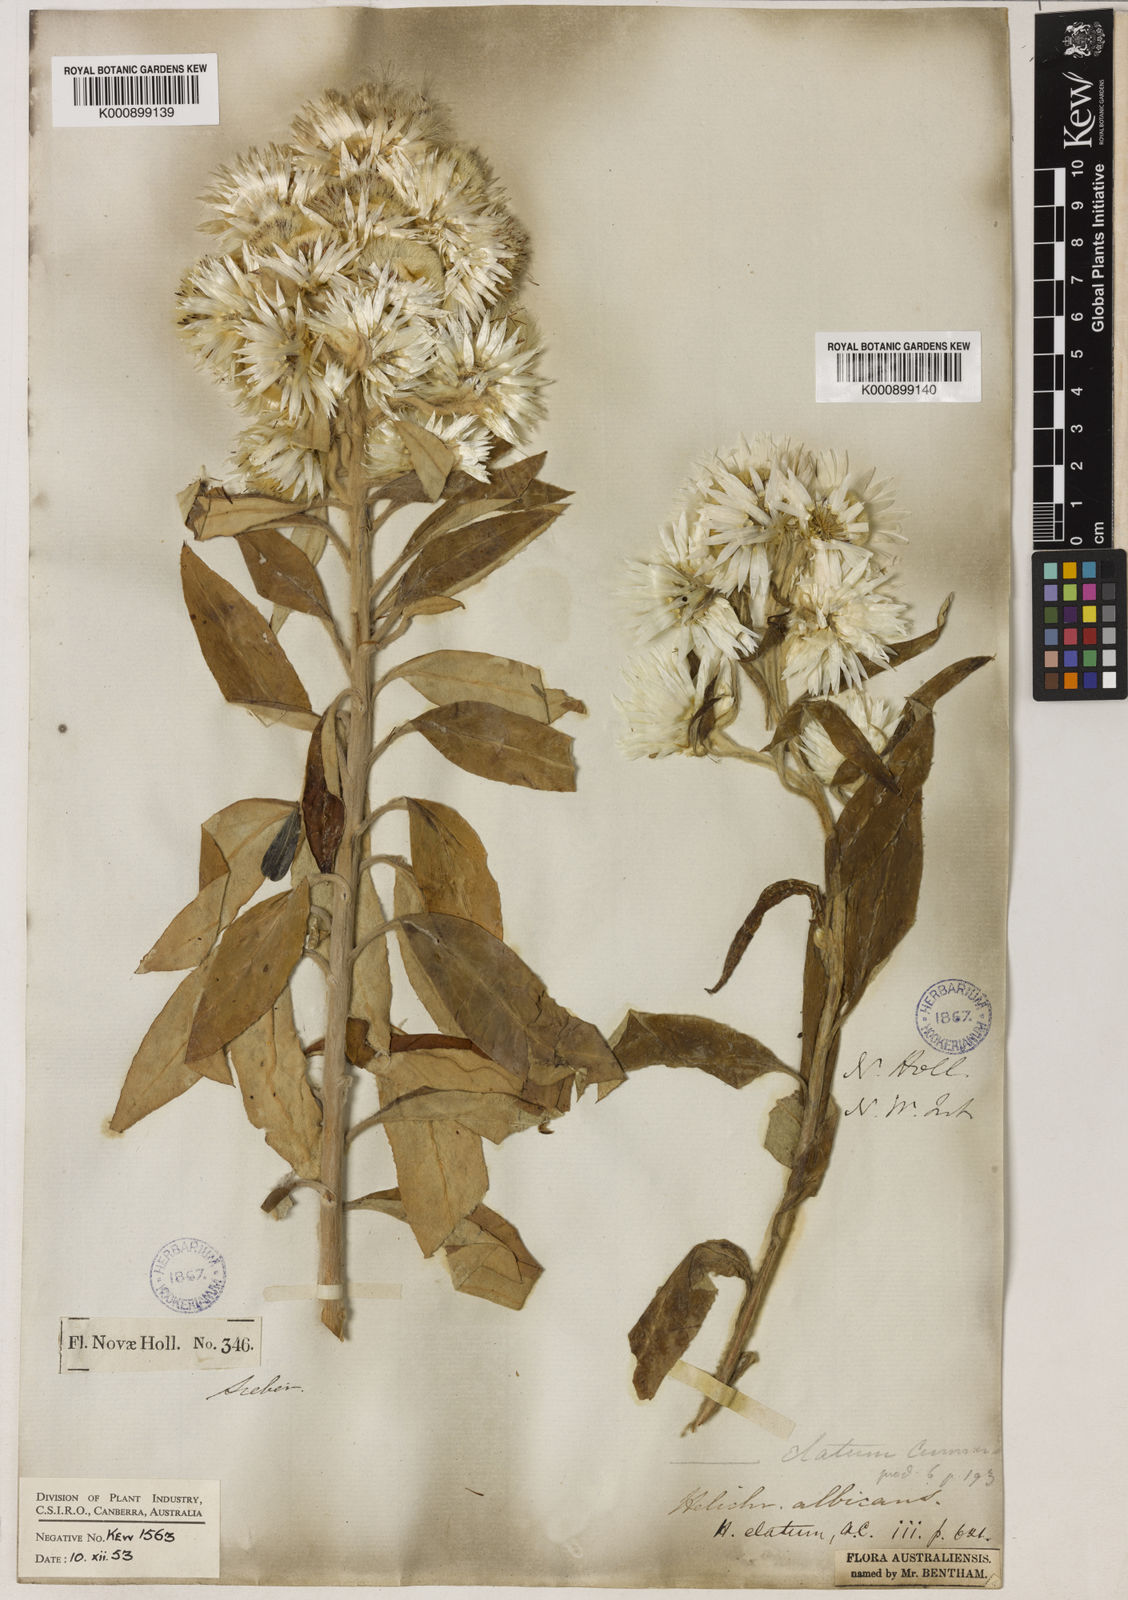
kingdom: Plantae
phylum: Tracheophyta
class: Magnoliopsida
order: Asterales
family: Asteraceae
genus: Leucozoma
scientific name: Leucozoma elatum
